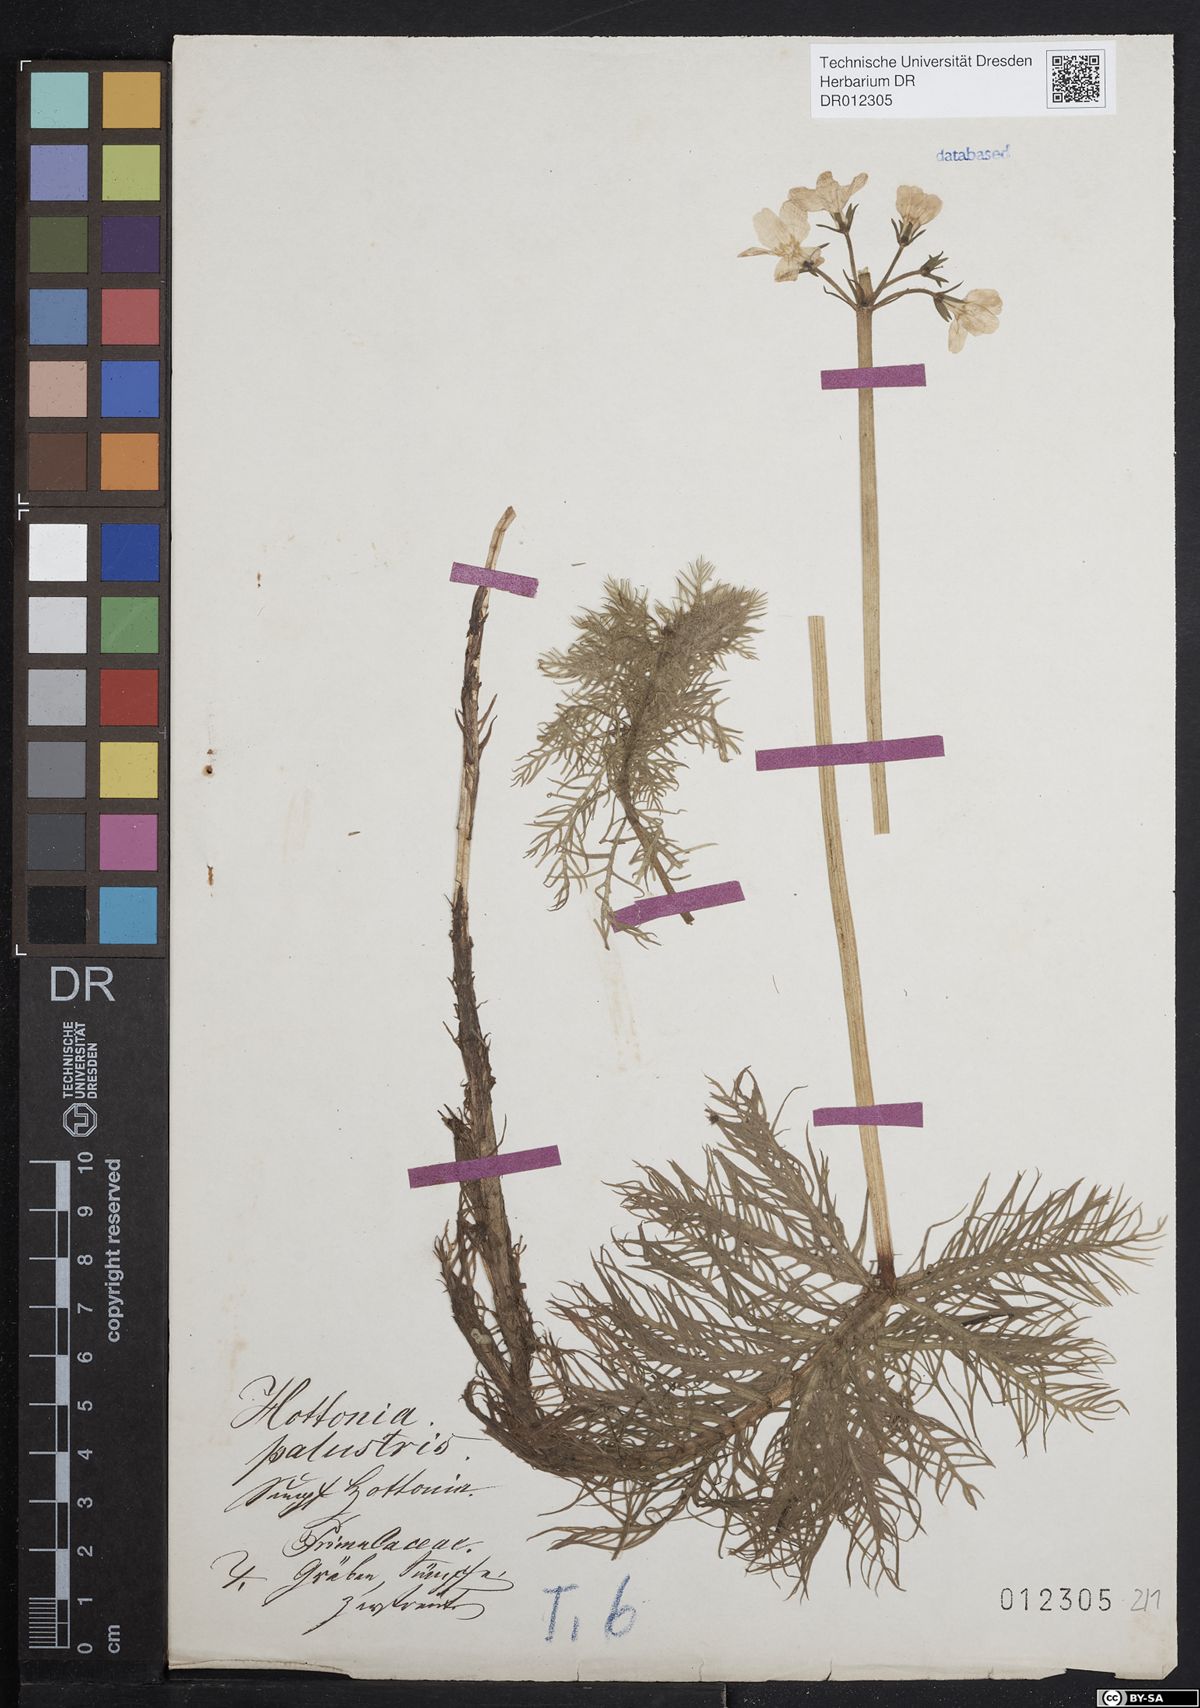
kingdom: Plantae
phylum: Tracheophyta
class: Magnoliopsida
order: Ericales
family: Primulaceae
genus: Hottonia
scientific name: Hottonia palustris
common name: Water-violet
